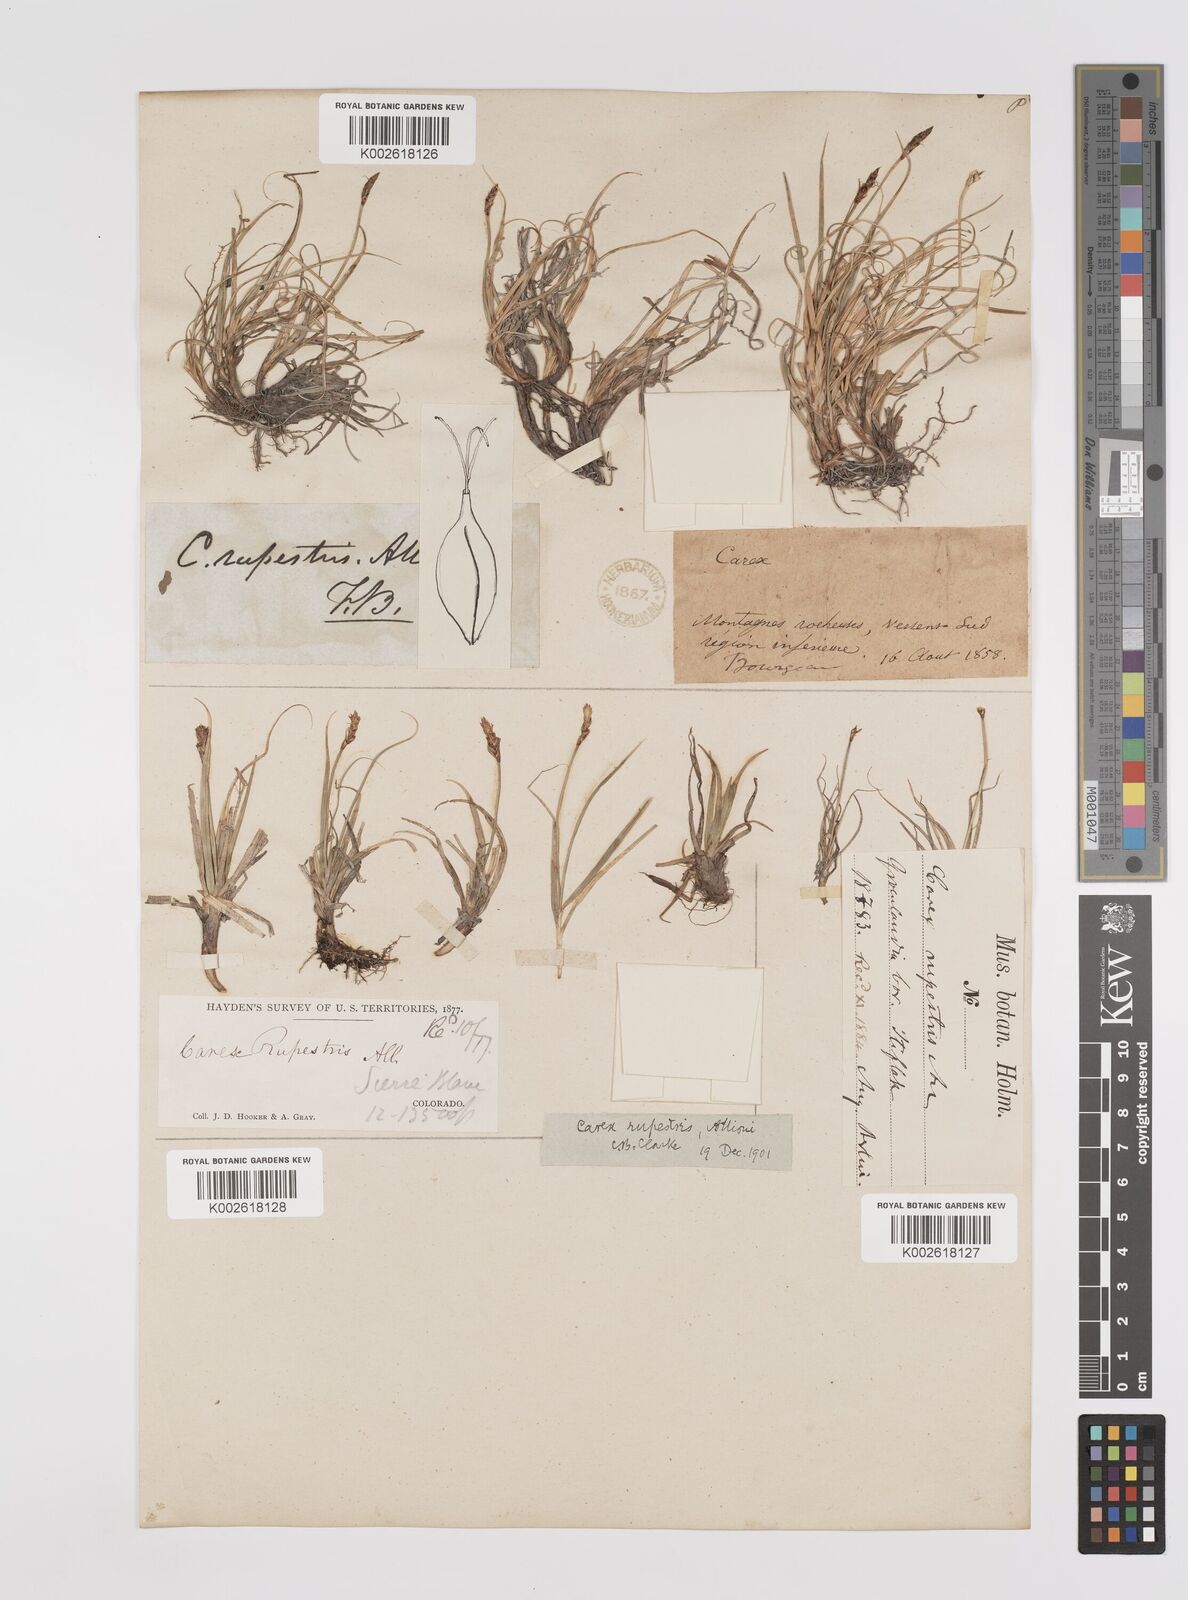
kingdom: Plantae
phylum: Tracheophyta
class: Liliopsida
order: Poales
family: Cyperaceae
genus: Carex
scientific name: Carex rupestris
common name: Rock sedge
